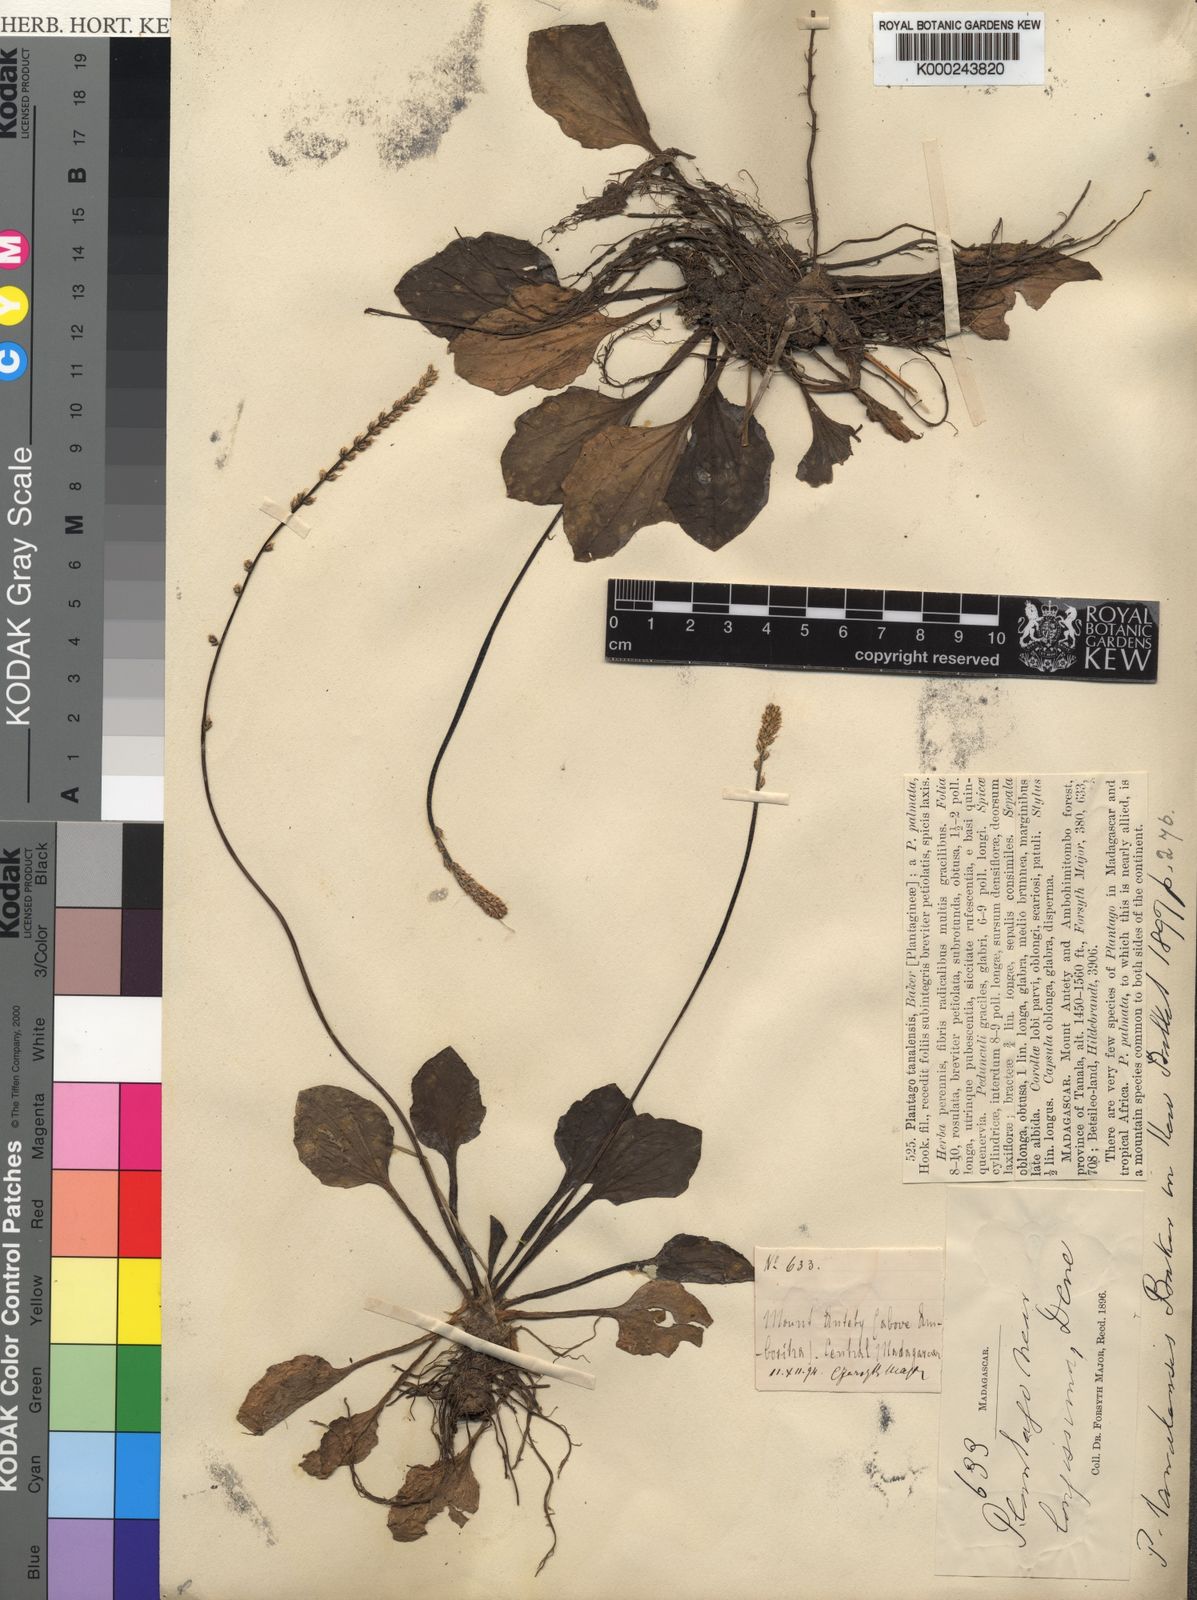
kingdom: Plantae
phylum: Tracheophyta
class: Magnoliopsida
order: Lamiales
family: Plantaginaceae
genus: Plantago
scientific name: Plantago tanalensis
